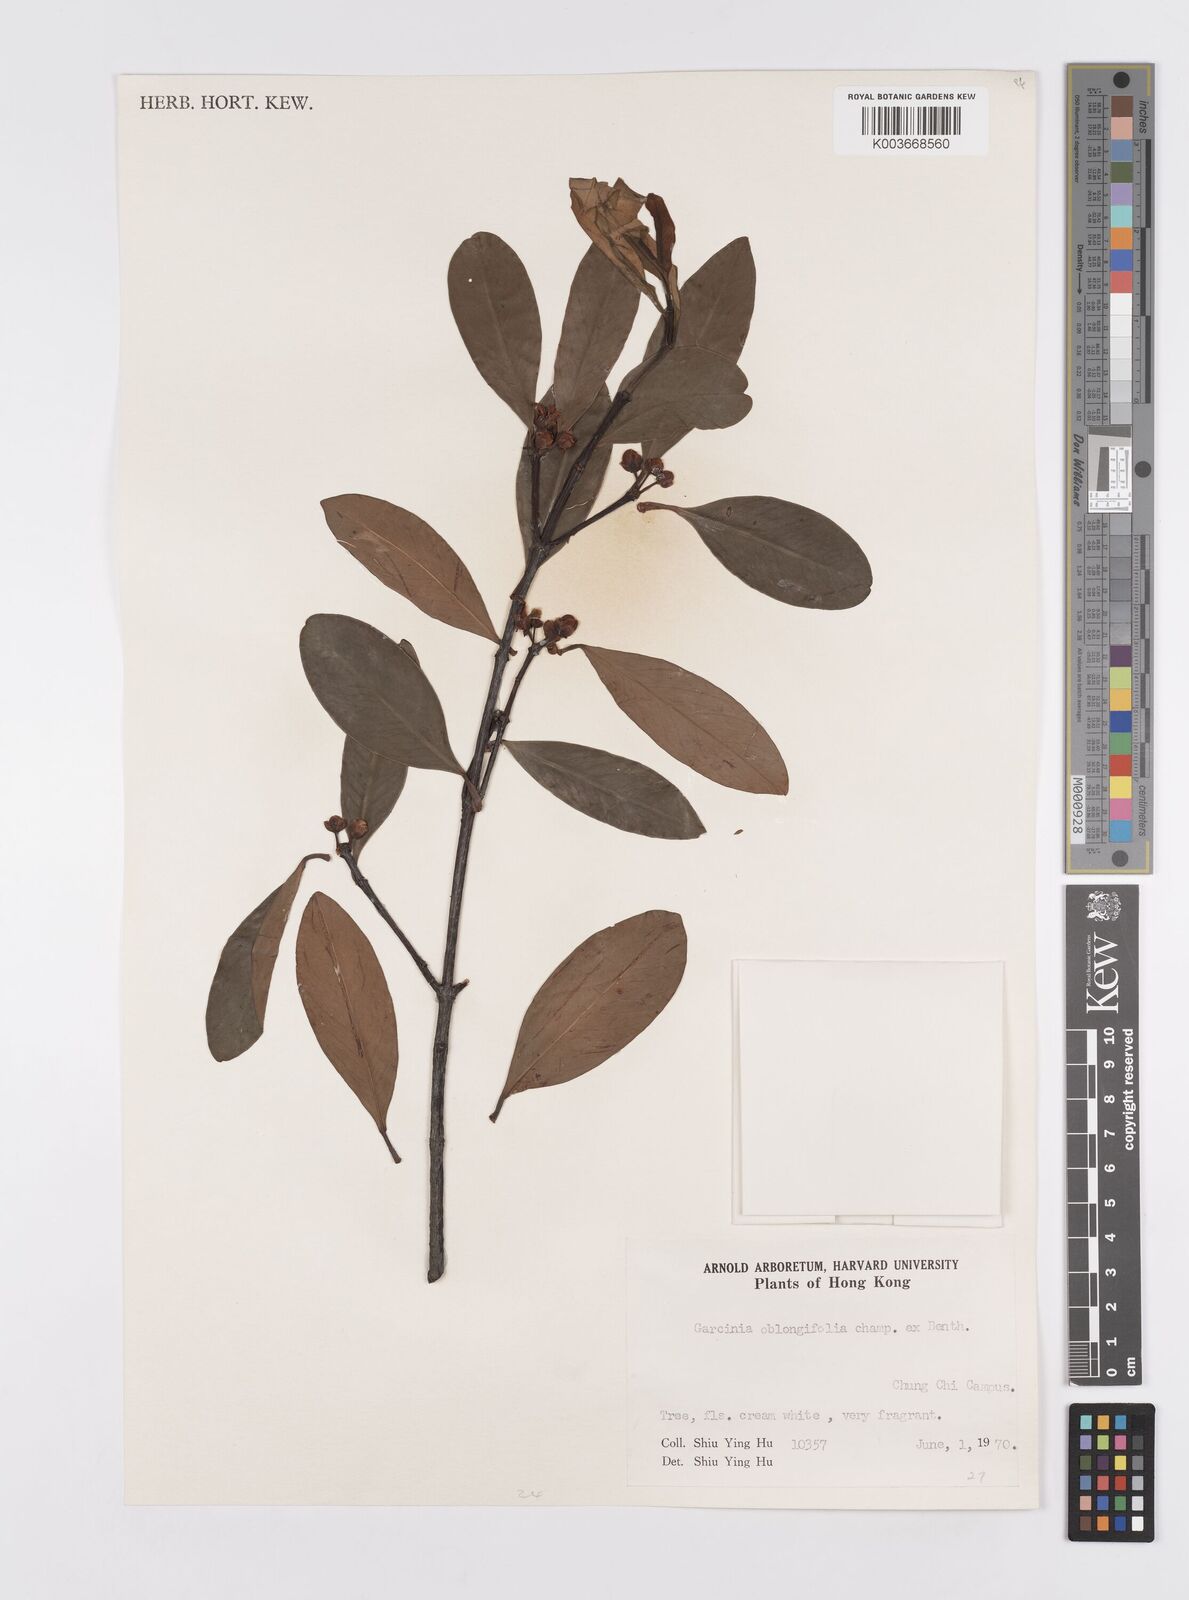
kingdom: Plantae
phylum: Tracheophyta
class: Magnoliopsida
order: Malpighiales
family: Clusiaceae
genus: Garcinia
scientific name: Garcinia oblongifolia
